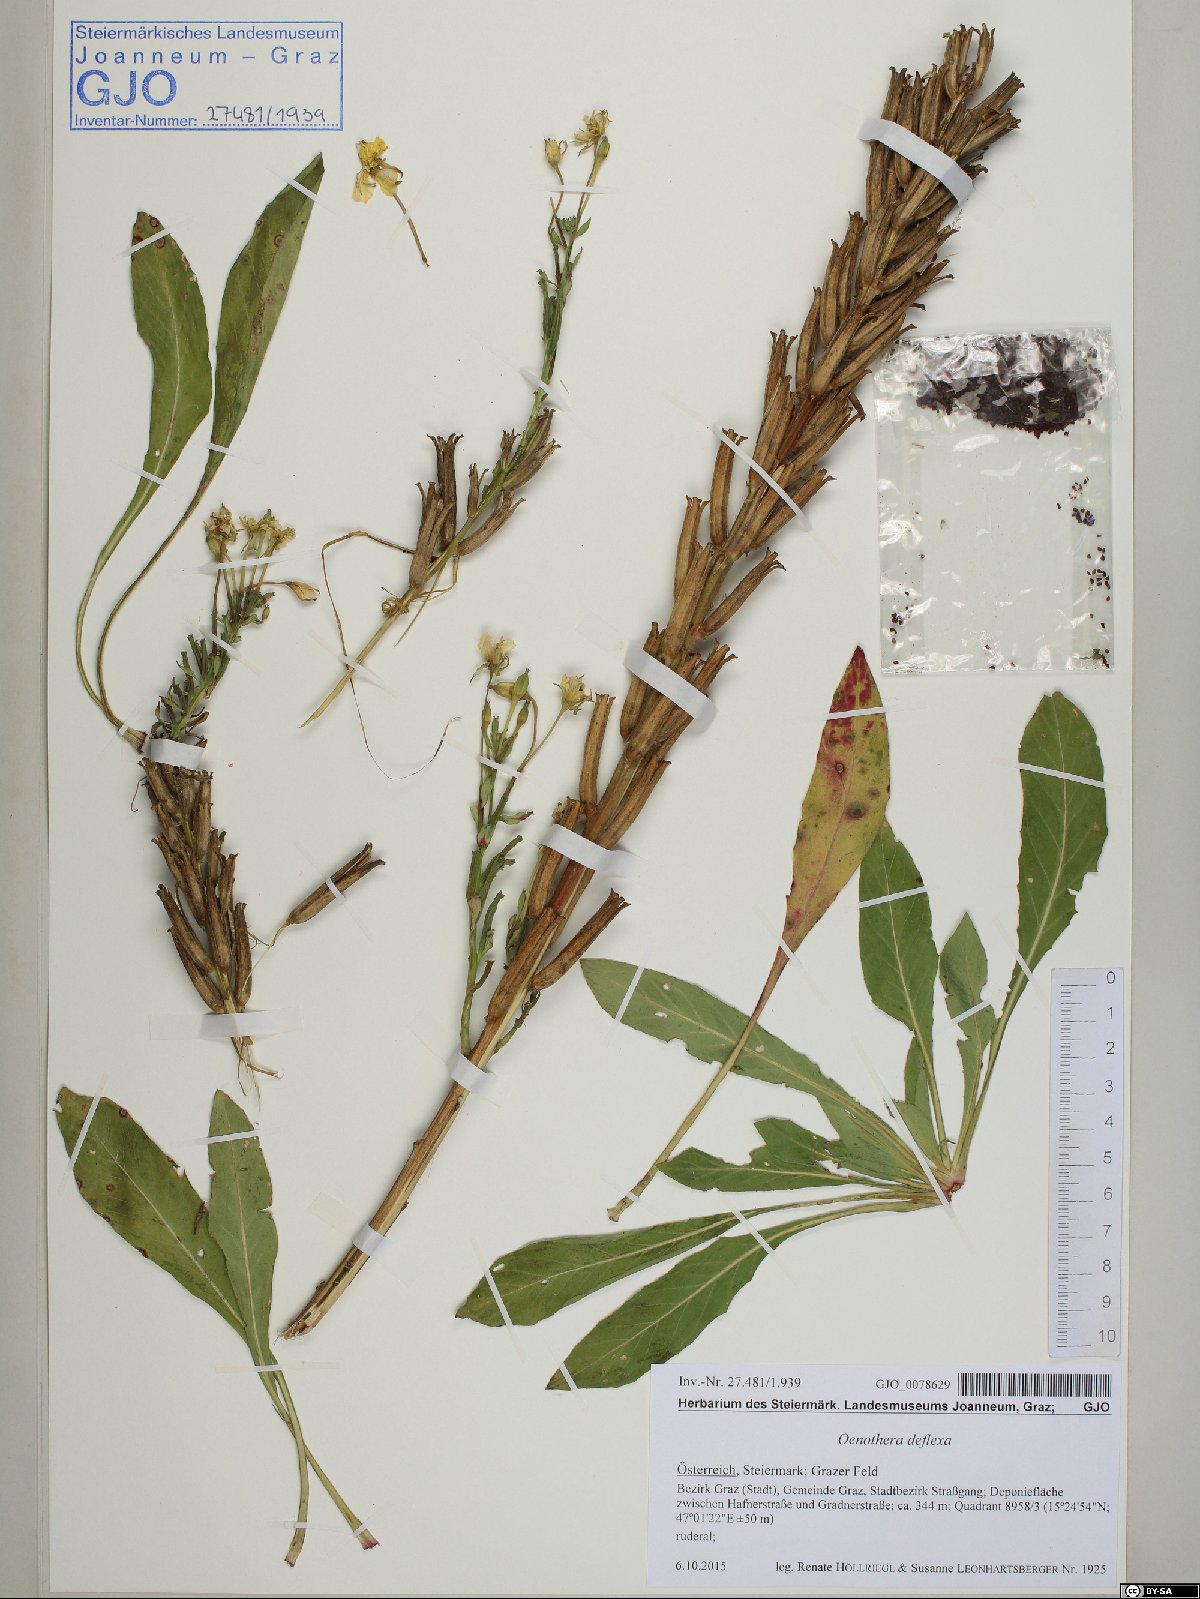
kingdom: Plantae
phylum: Tracheophyta
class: Magnoliopsida
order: Myrtales
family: Onagraceae
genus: Oenothera
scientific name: Oenothera parviflora
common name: Least evening-primrose
